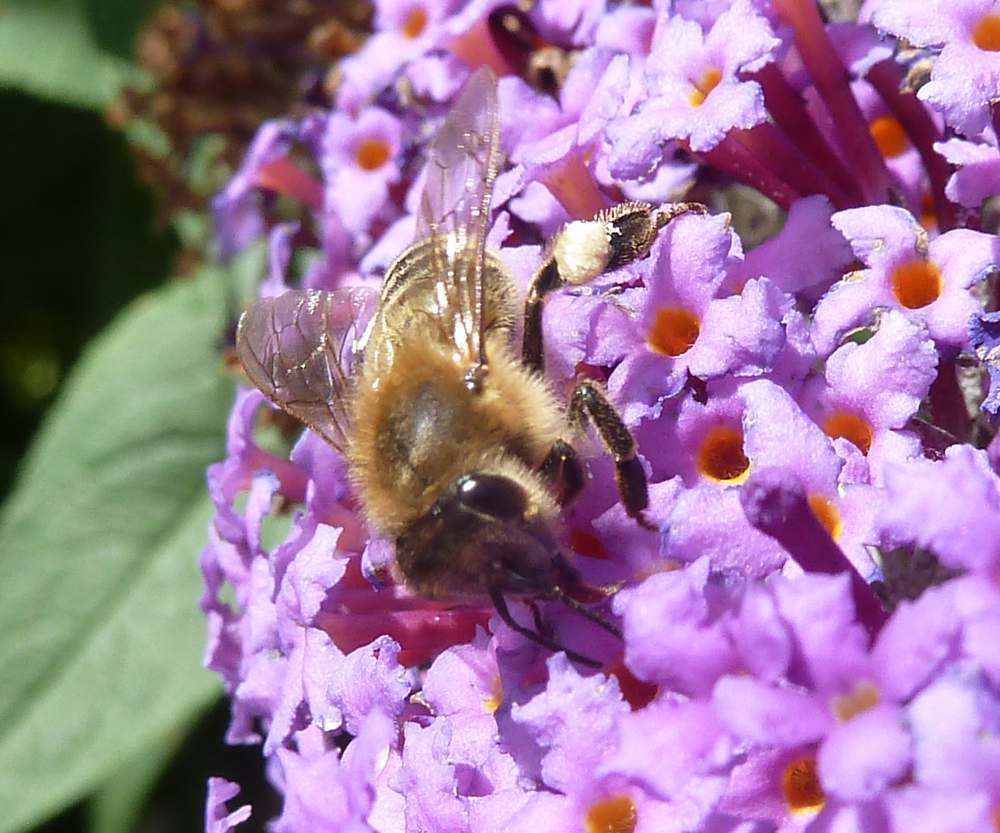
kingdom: Animalia
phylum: Arthropoda
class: Insecta
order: Hymenoptera
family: Apidae
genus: Apis
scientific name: Apis mellifera
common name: Honey bee
